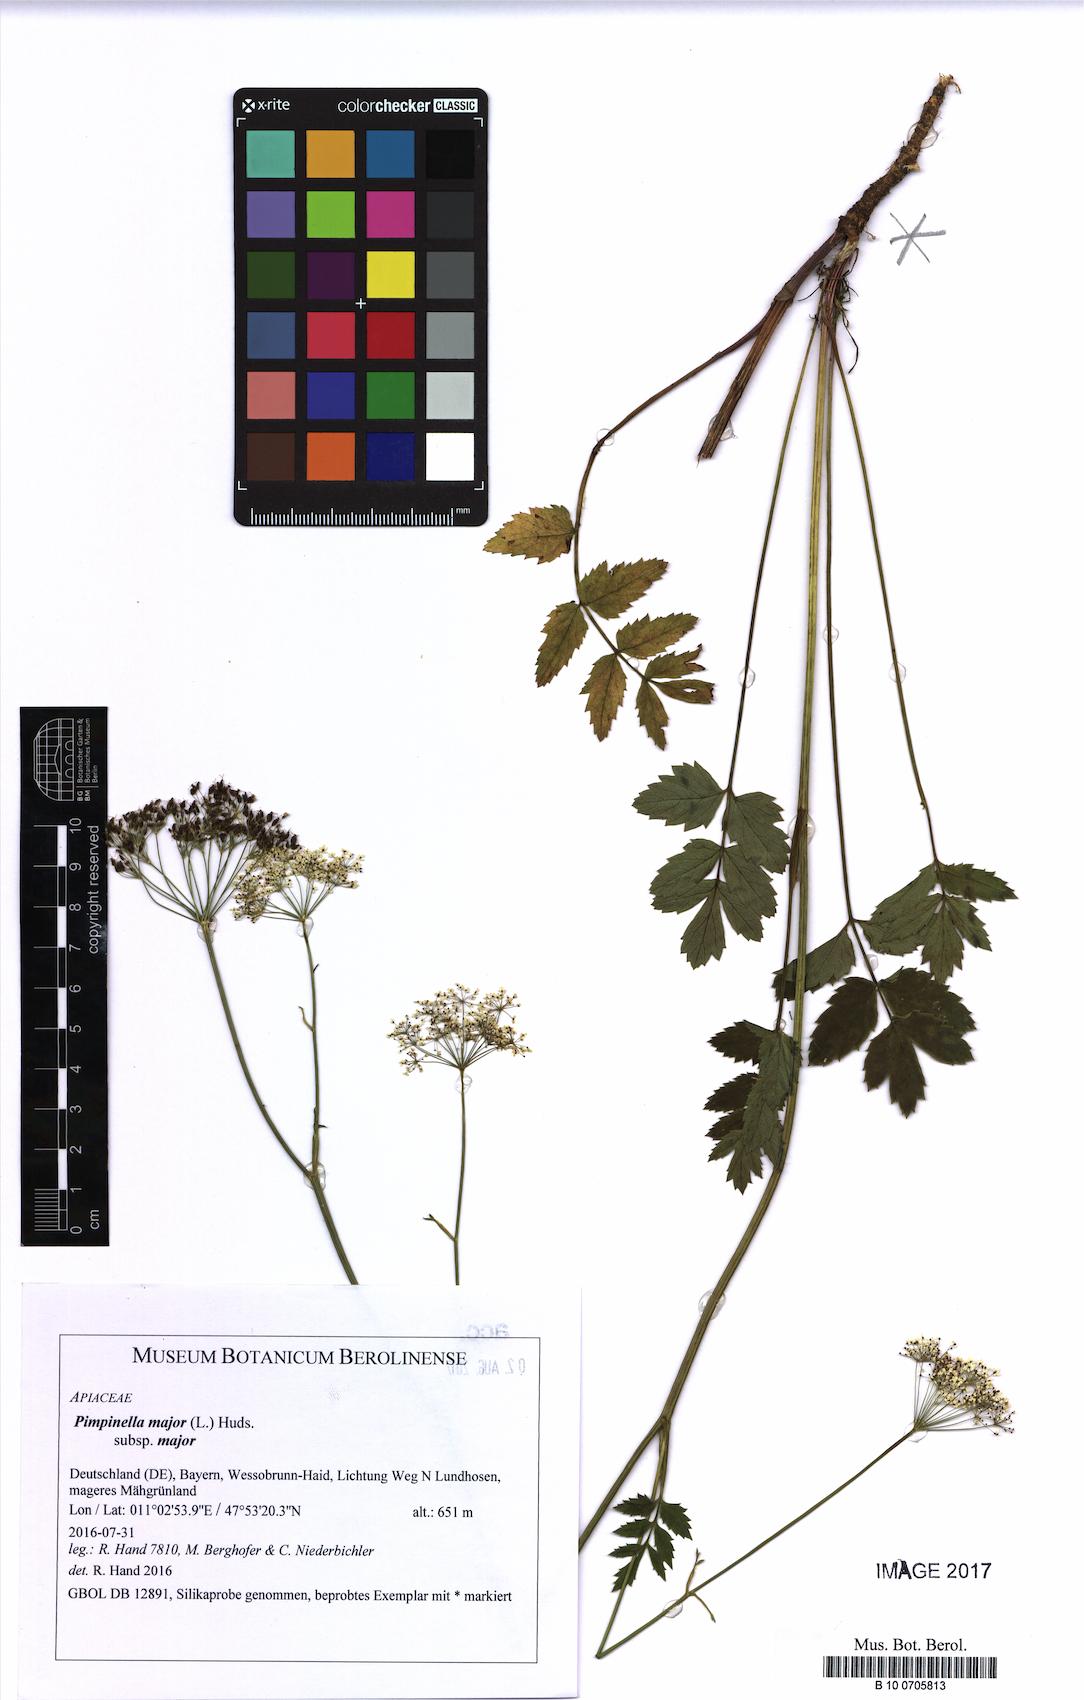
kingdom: Plantae
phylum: Tracheophyta
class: Magnoliopsida
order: Apiales
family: Apiaceae
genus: Pimpinella
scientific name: Pimpinella major
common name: Greater burnet-saxifrage
